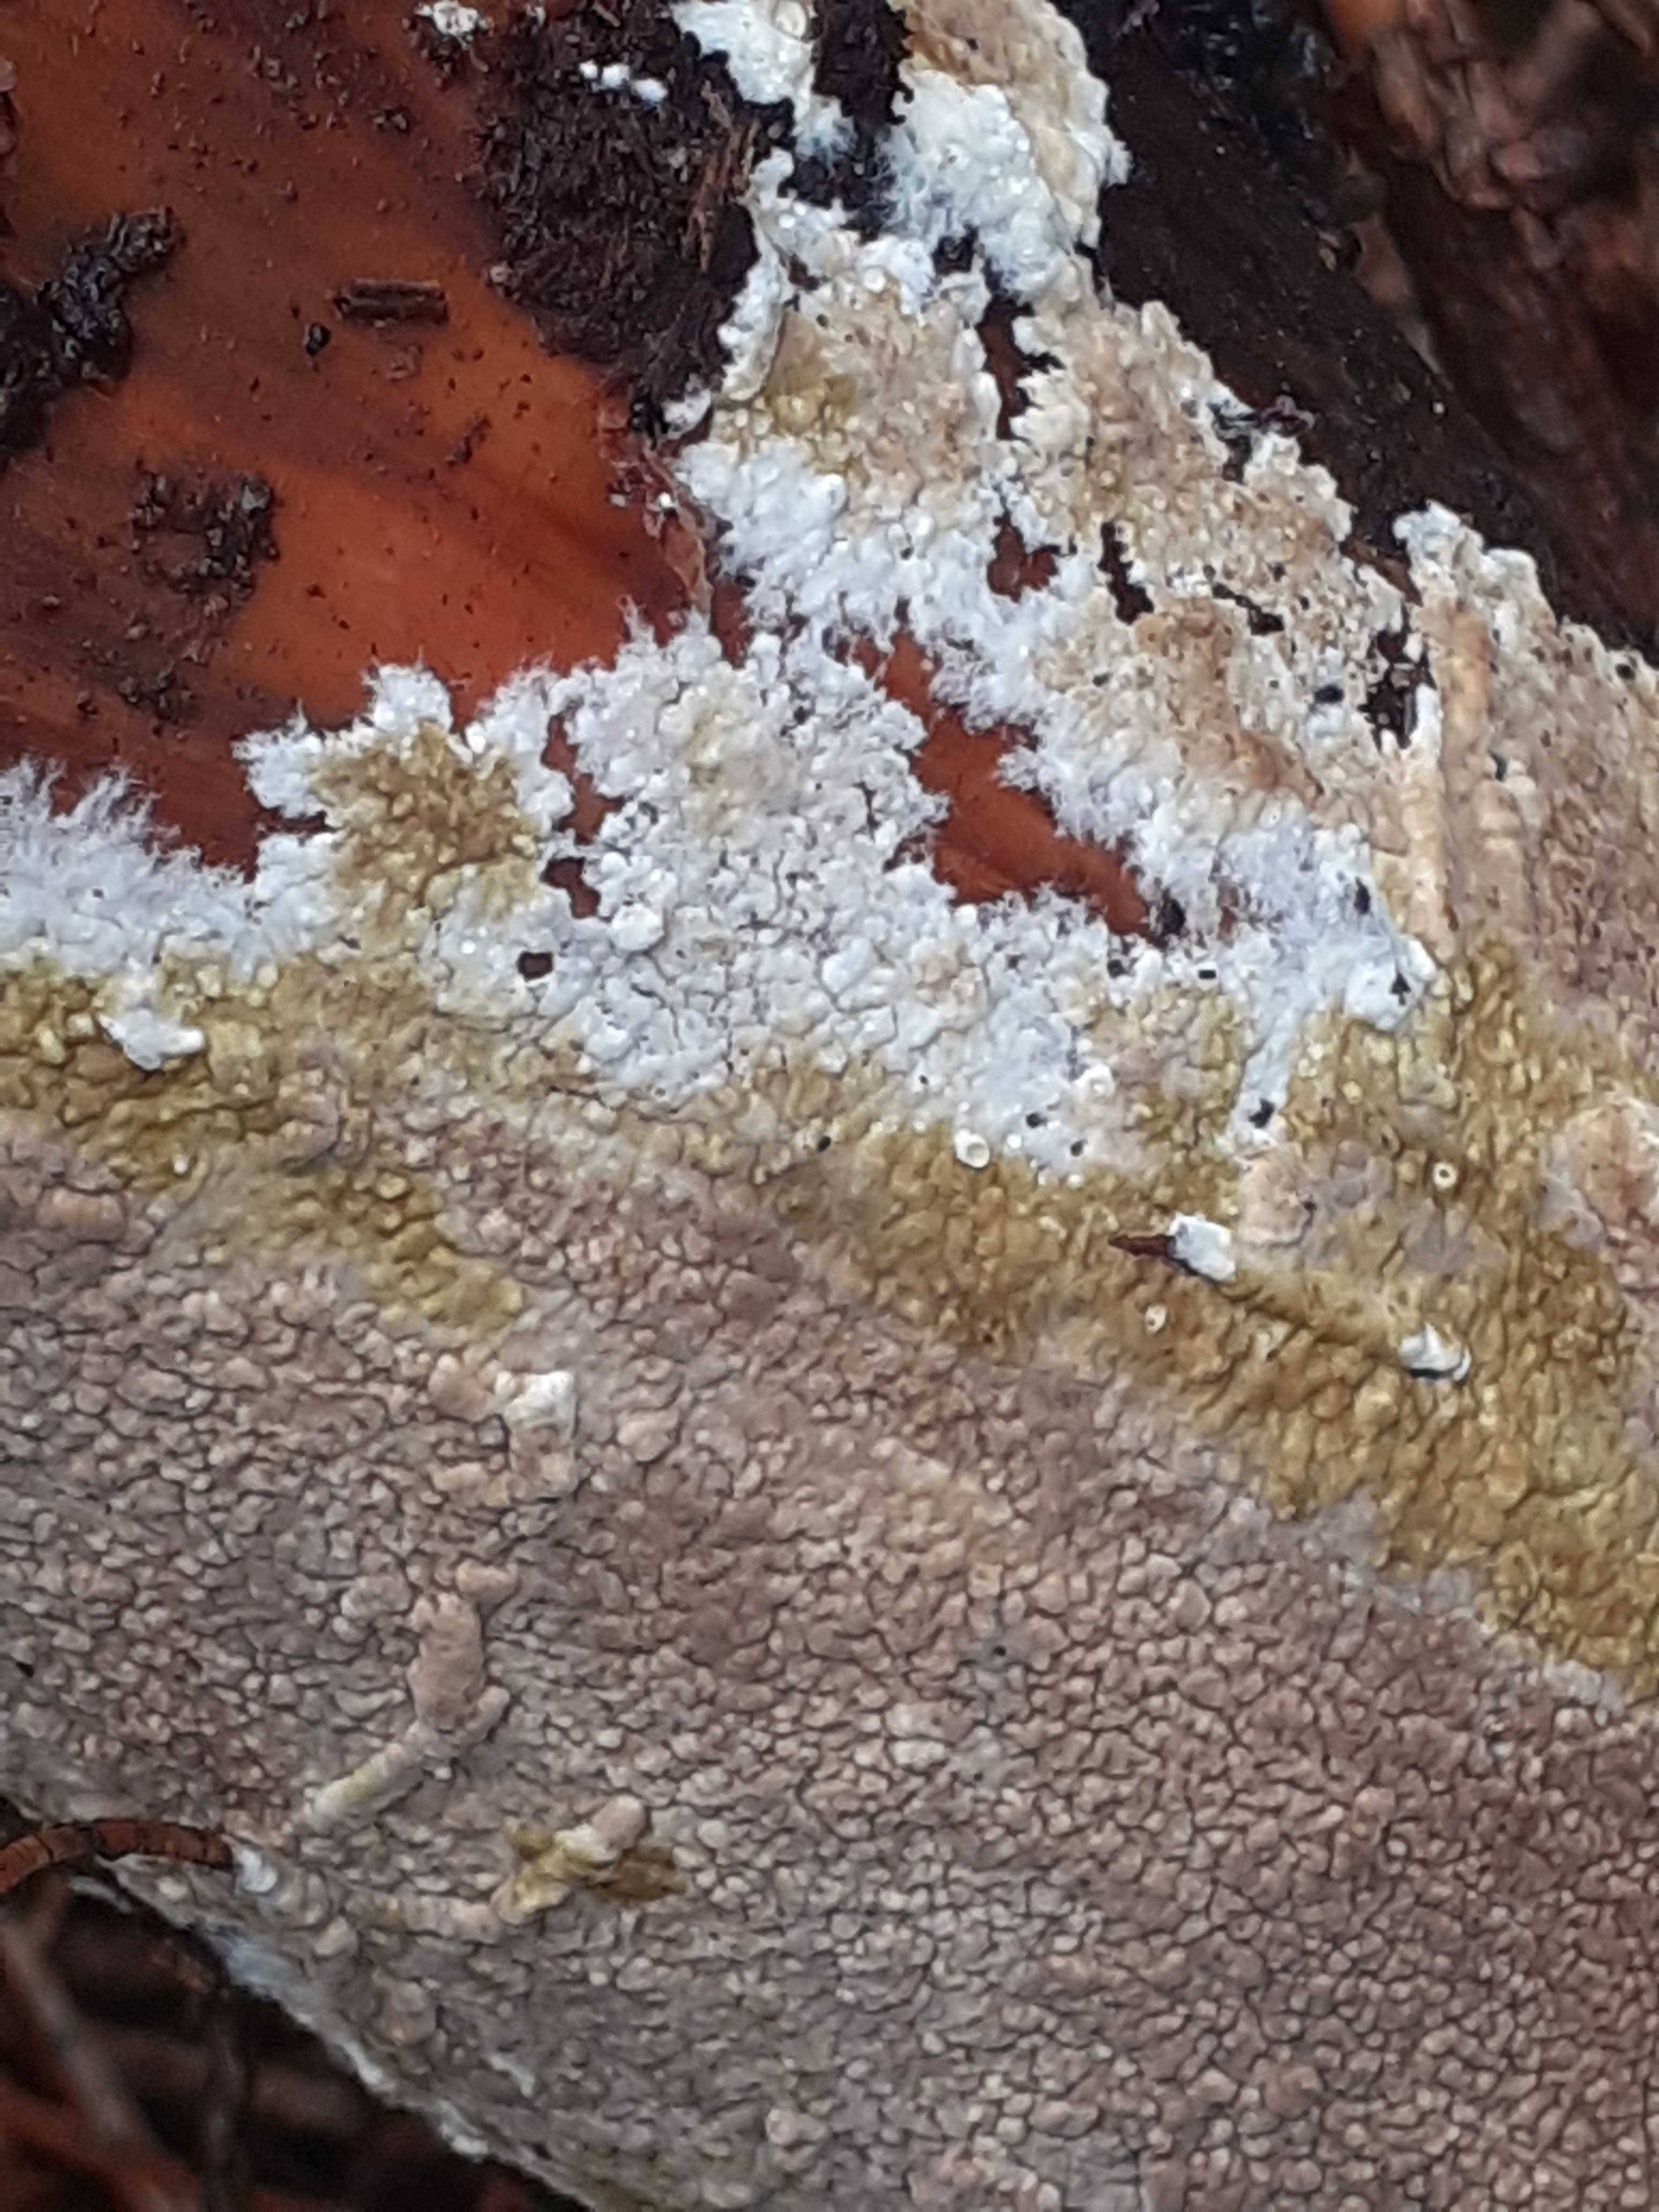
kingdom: Fungi
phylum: Basidiomycota
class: Agaricomycetes
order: Boletales
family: Coniophoraceae
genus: Coniophora
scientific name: Coniophora puteana
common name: gul tømmersvamp
